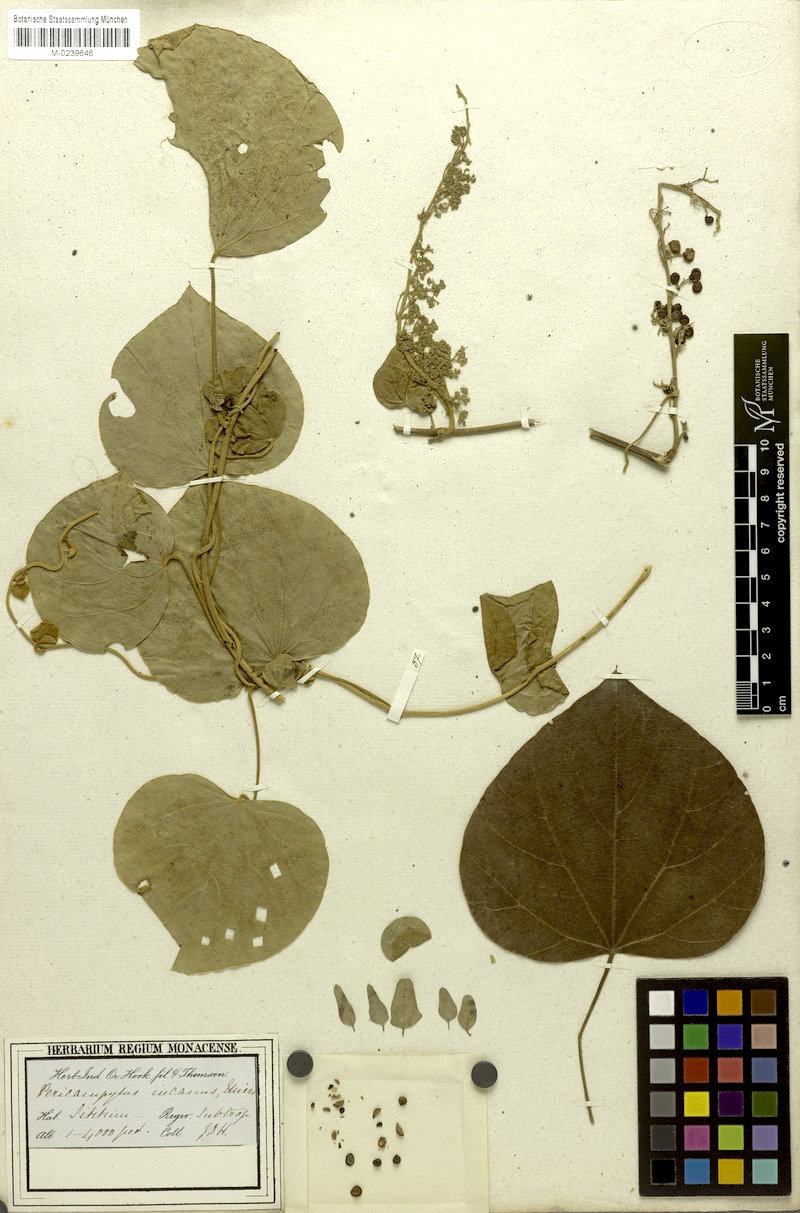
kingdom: Plantae
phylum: Tracheophyta
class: Magnoliopsida
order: Ranunculales
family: Menispermaceae
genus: Pericampylus
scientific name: Pericampylus glaucus
